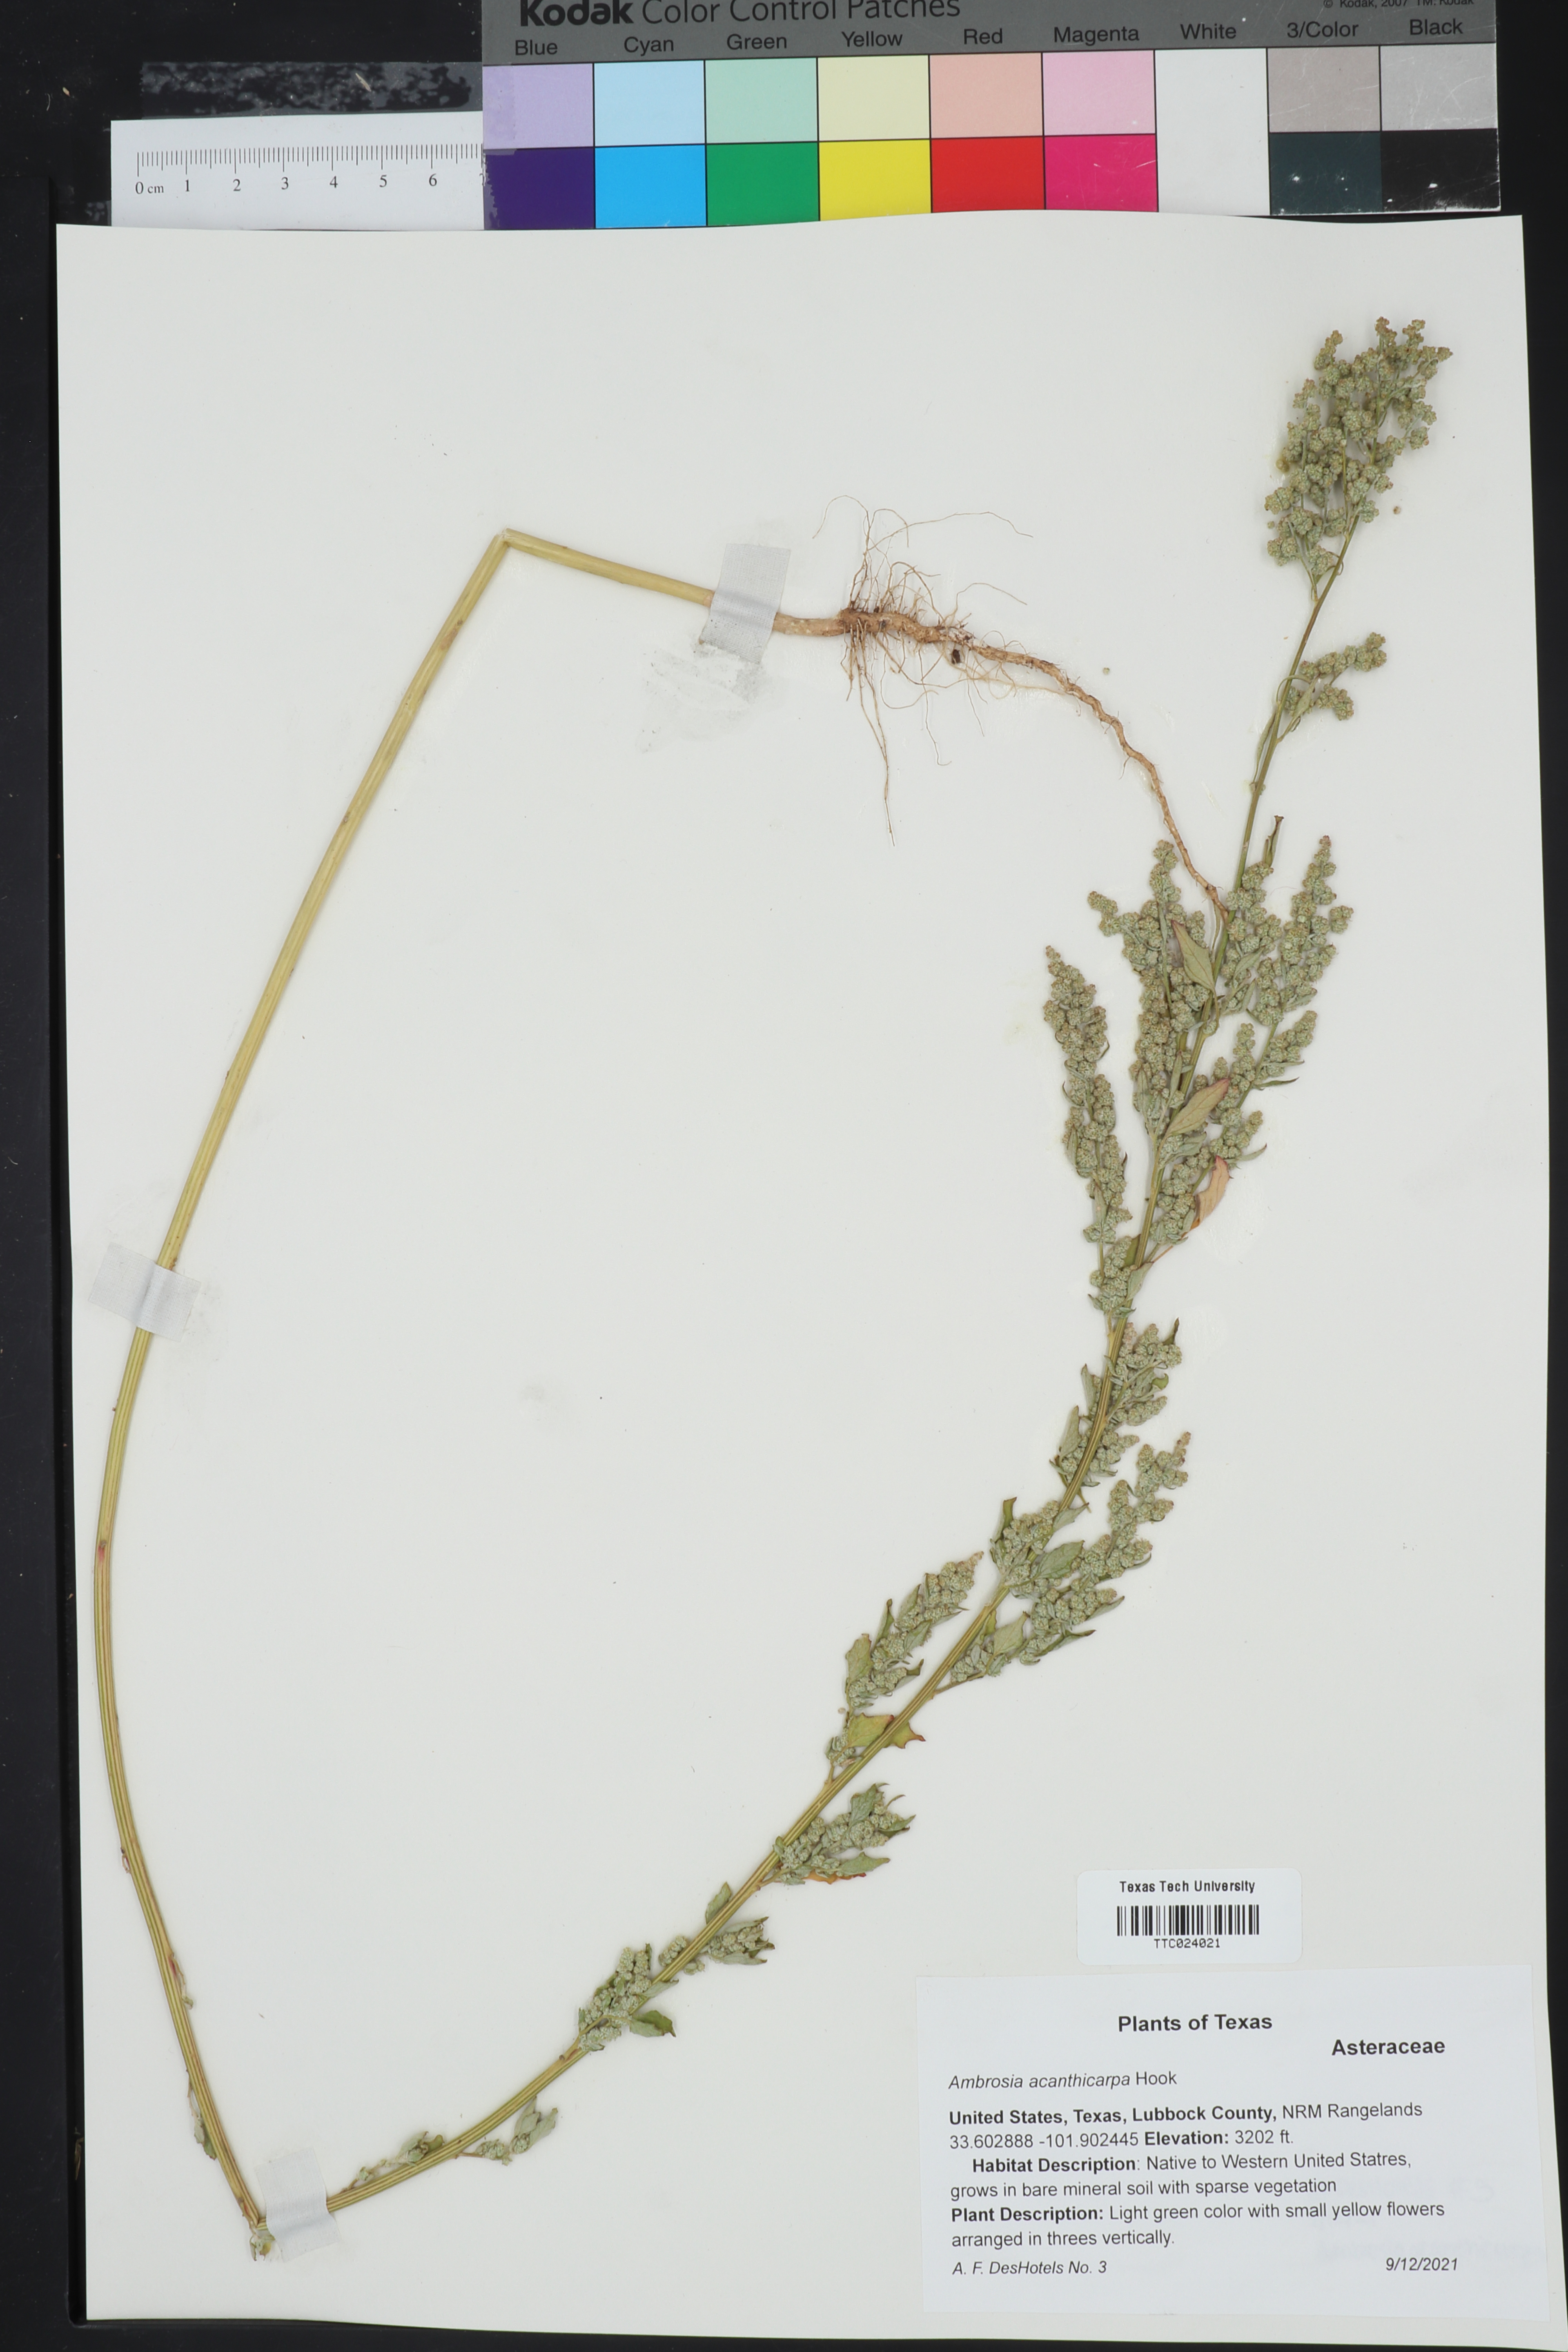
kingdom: Plantae
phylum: Tracheophyta
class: Magnoliopsida
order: Asterales
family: Asteraceae
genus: Ambrosia
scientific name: Ambrosia acanthicarpa
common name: Hooker's bur ragweed
